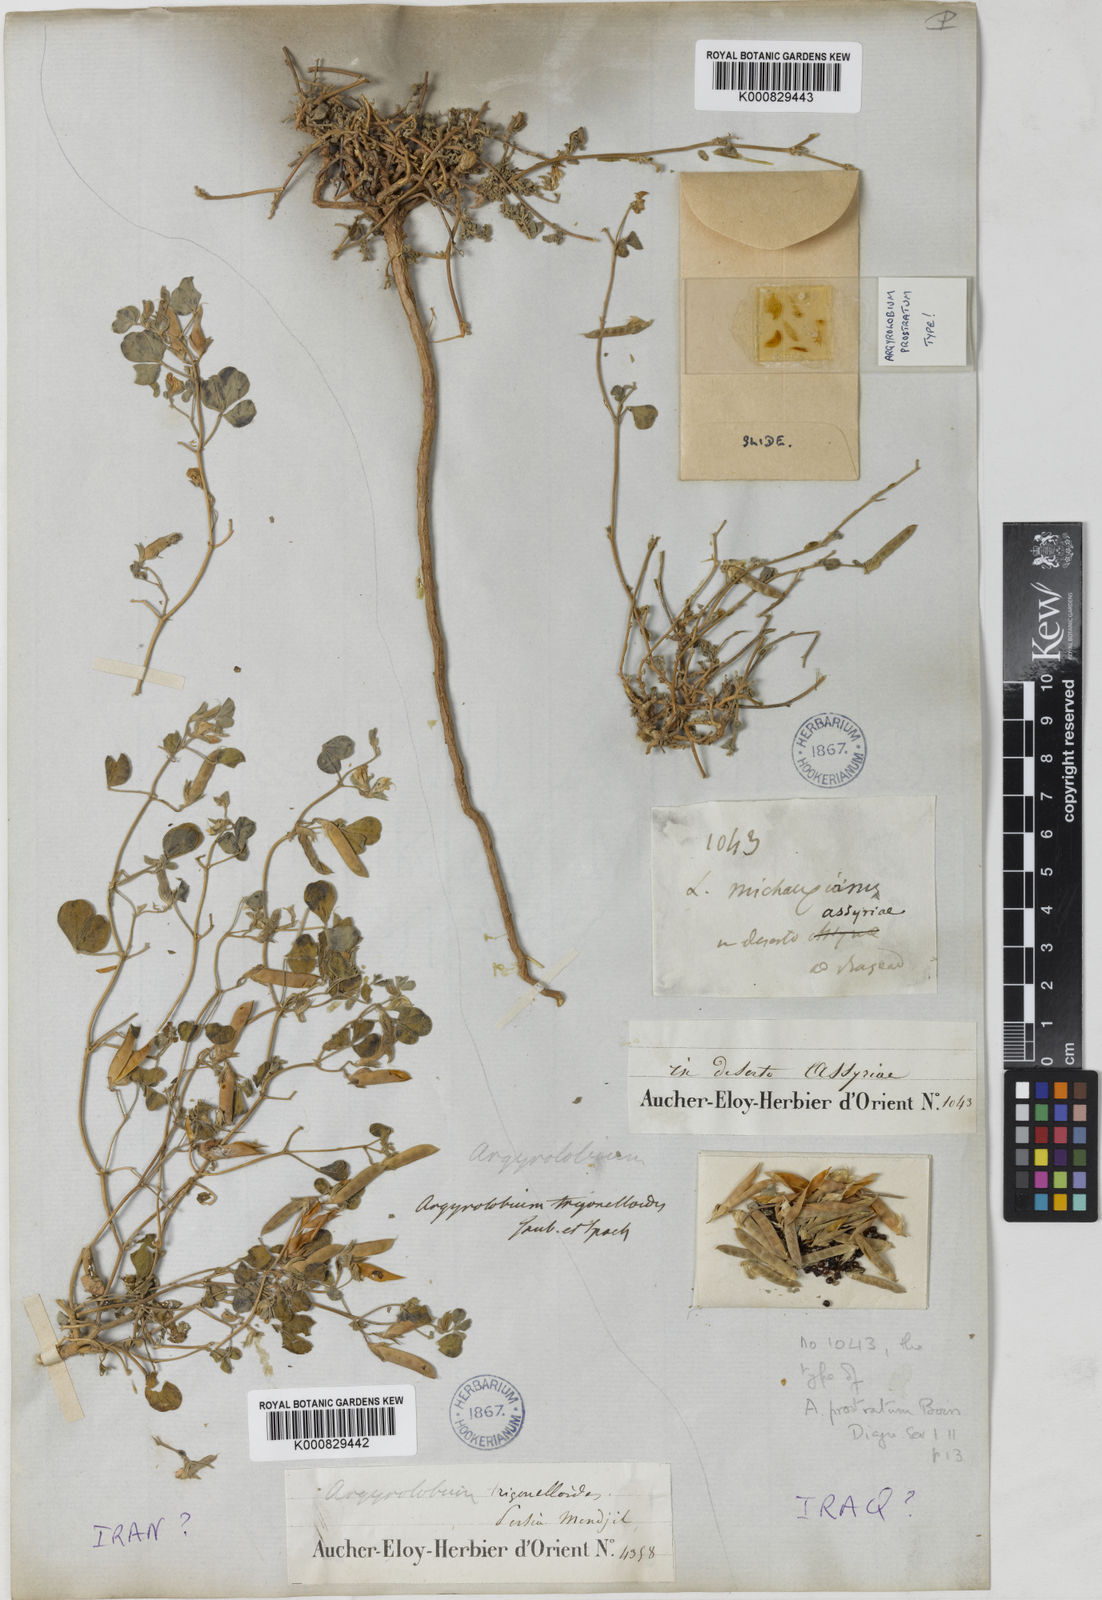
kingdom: Plantae
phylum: Tracheophyta
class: Magnoliopsida
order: Fabales
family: Fabaceae
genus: Argyrolobium
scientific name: Argyrolobium roseum
